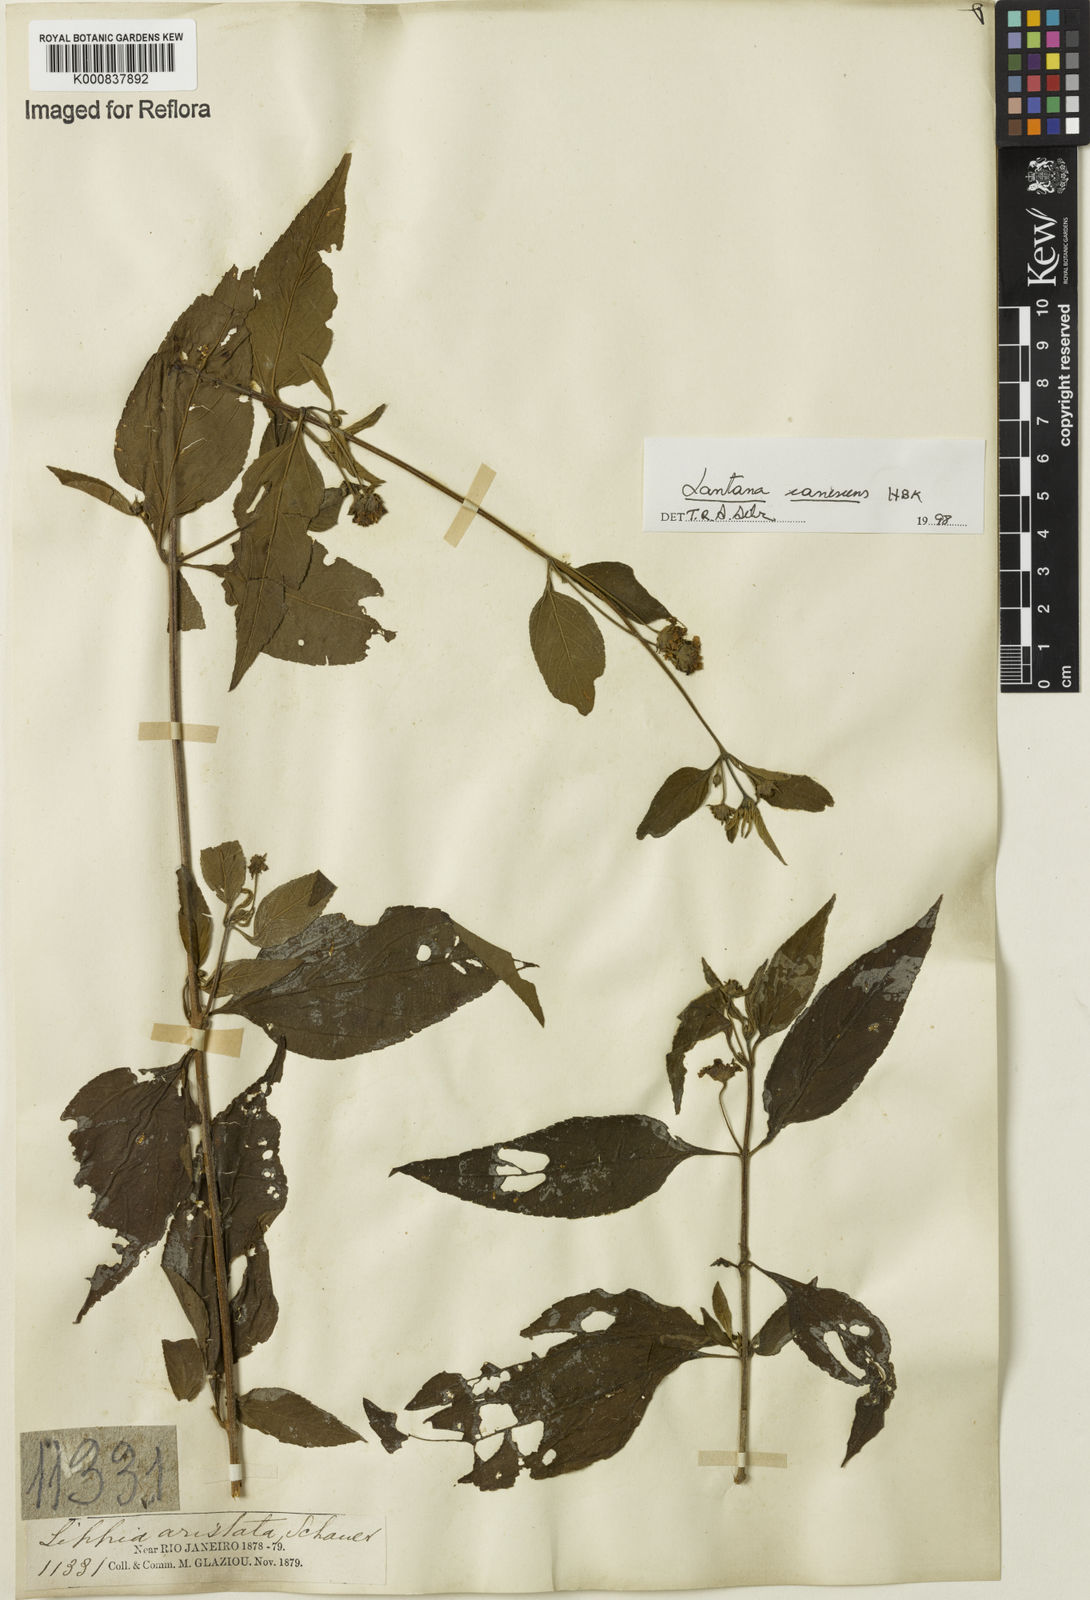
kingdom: Plantae
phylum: Tracheophyta
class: Magnoliopsida
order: Lamiales
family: Verbenaceae
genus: Lantana
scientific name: Lantana canescens
